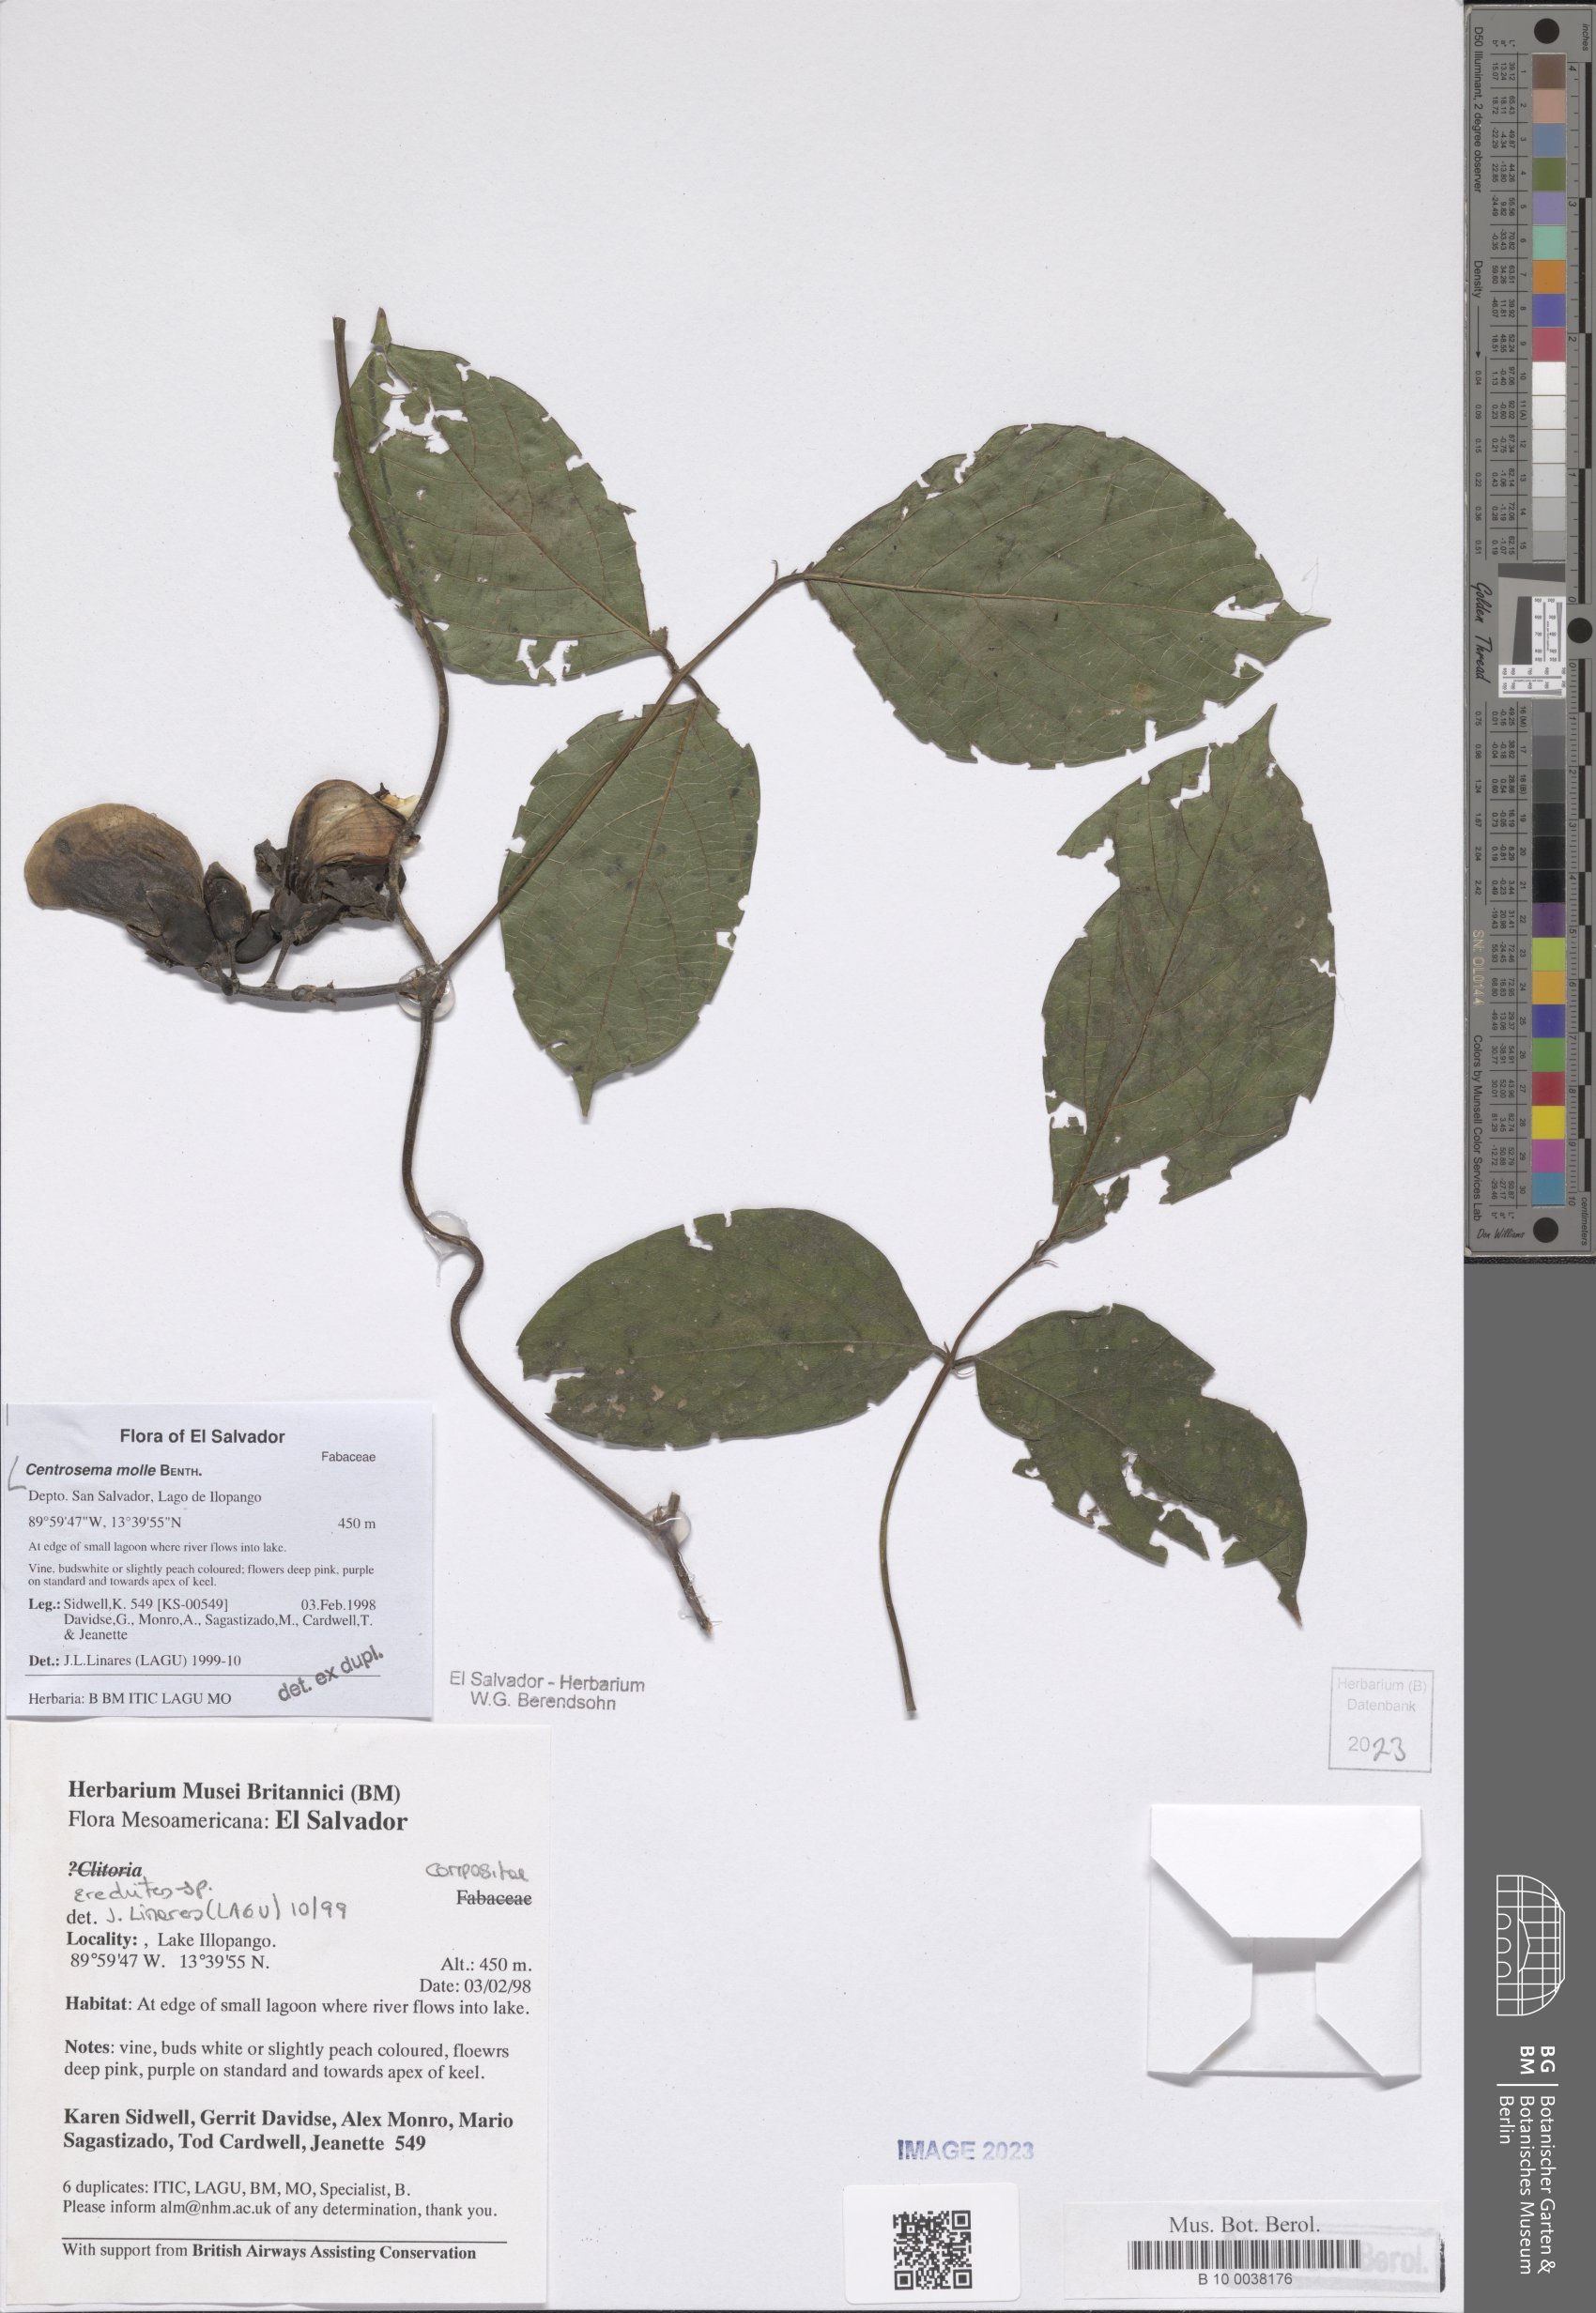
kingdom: Plantae
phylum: Tracheophyta
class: Magnoliopsida
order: Fabales
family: Fabaceae
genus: Centrosema
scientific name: Centrosema molle
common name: Soft butterfly pea
